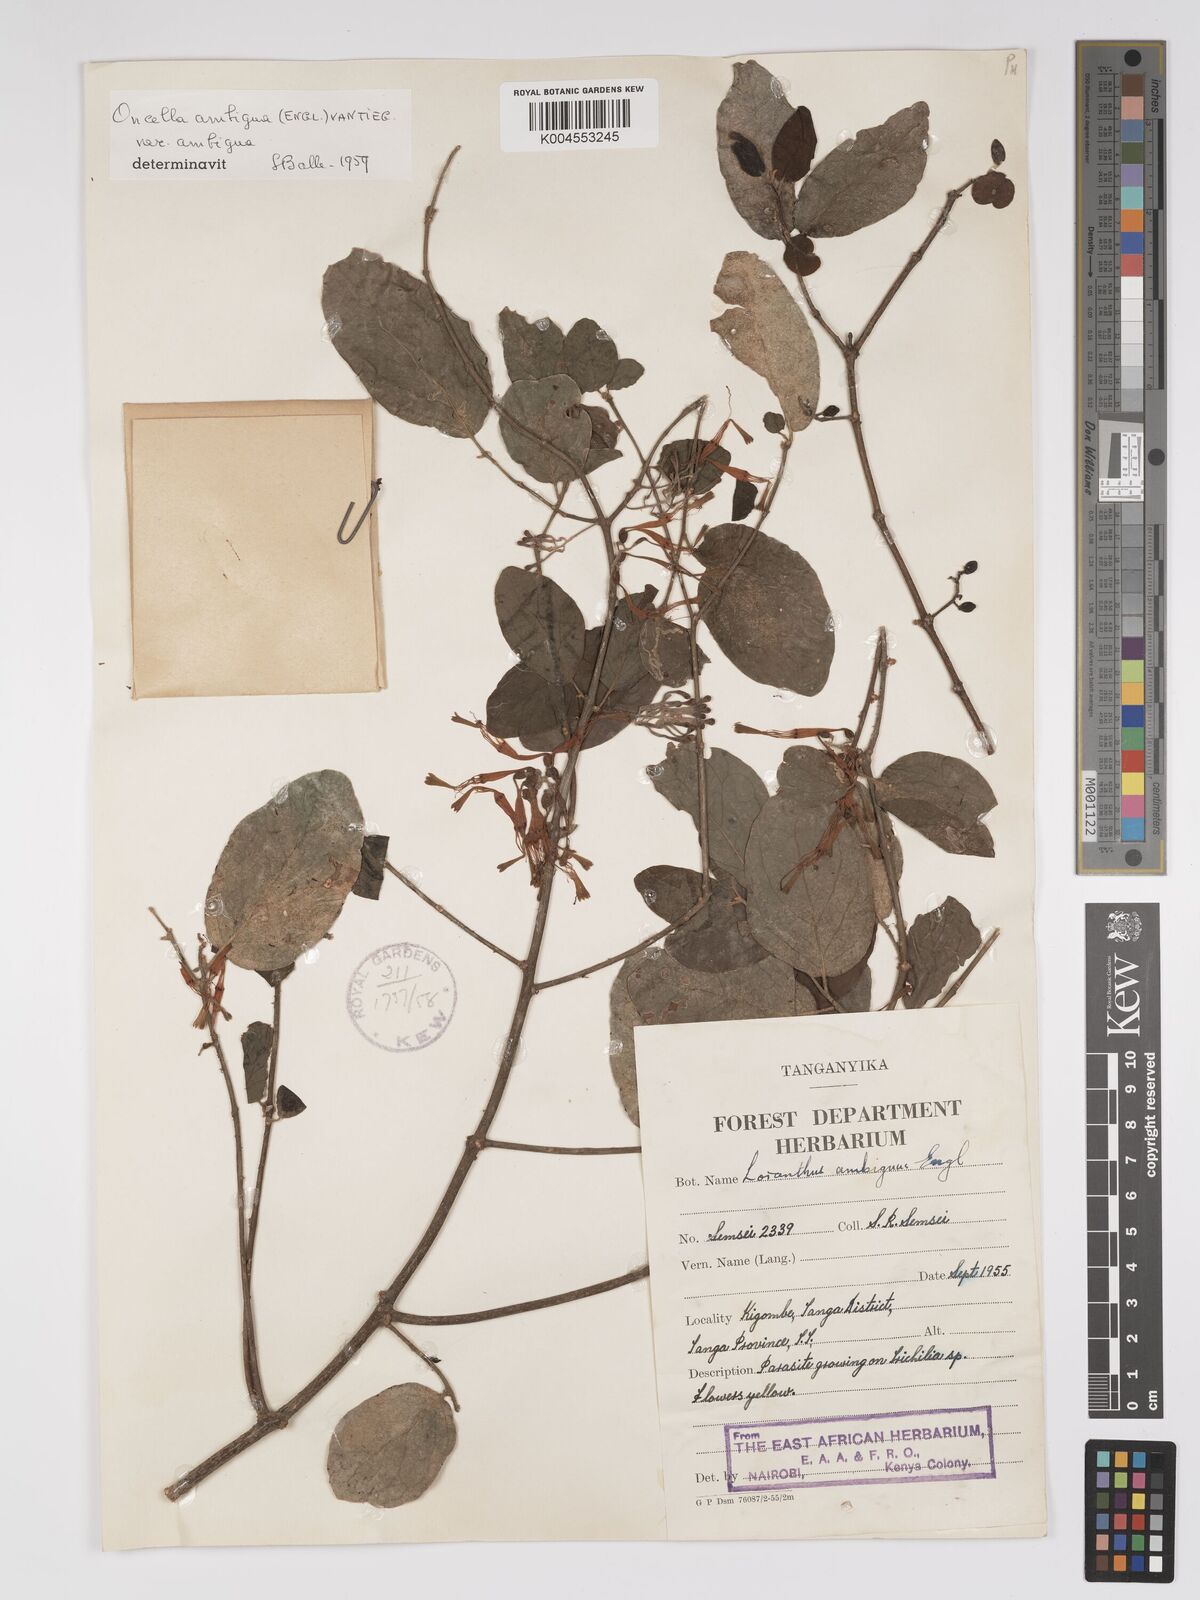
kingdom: Plantae
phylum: Tracheophyta
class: Magnoliopsida
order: Santalales
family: Loranthaceae
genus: Oncella
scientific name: Oncella ambigua
